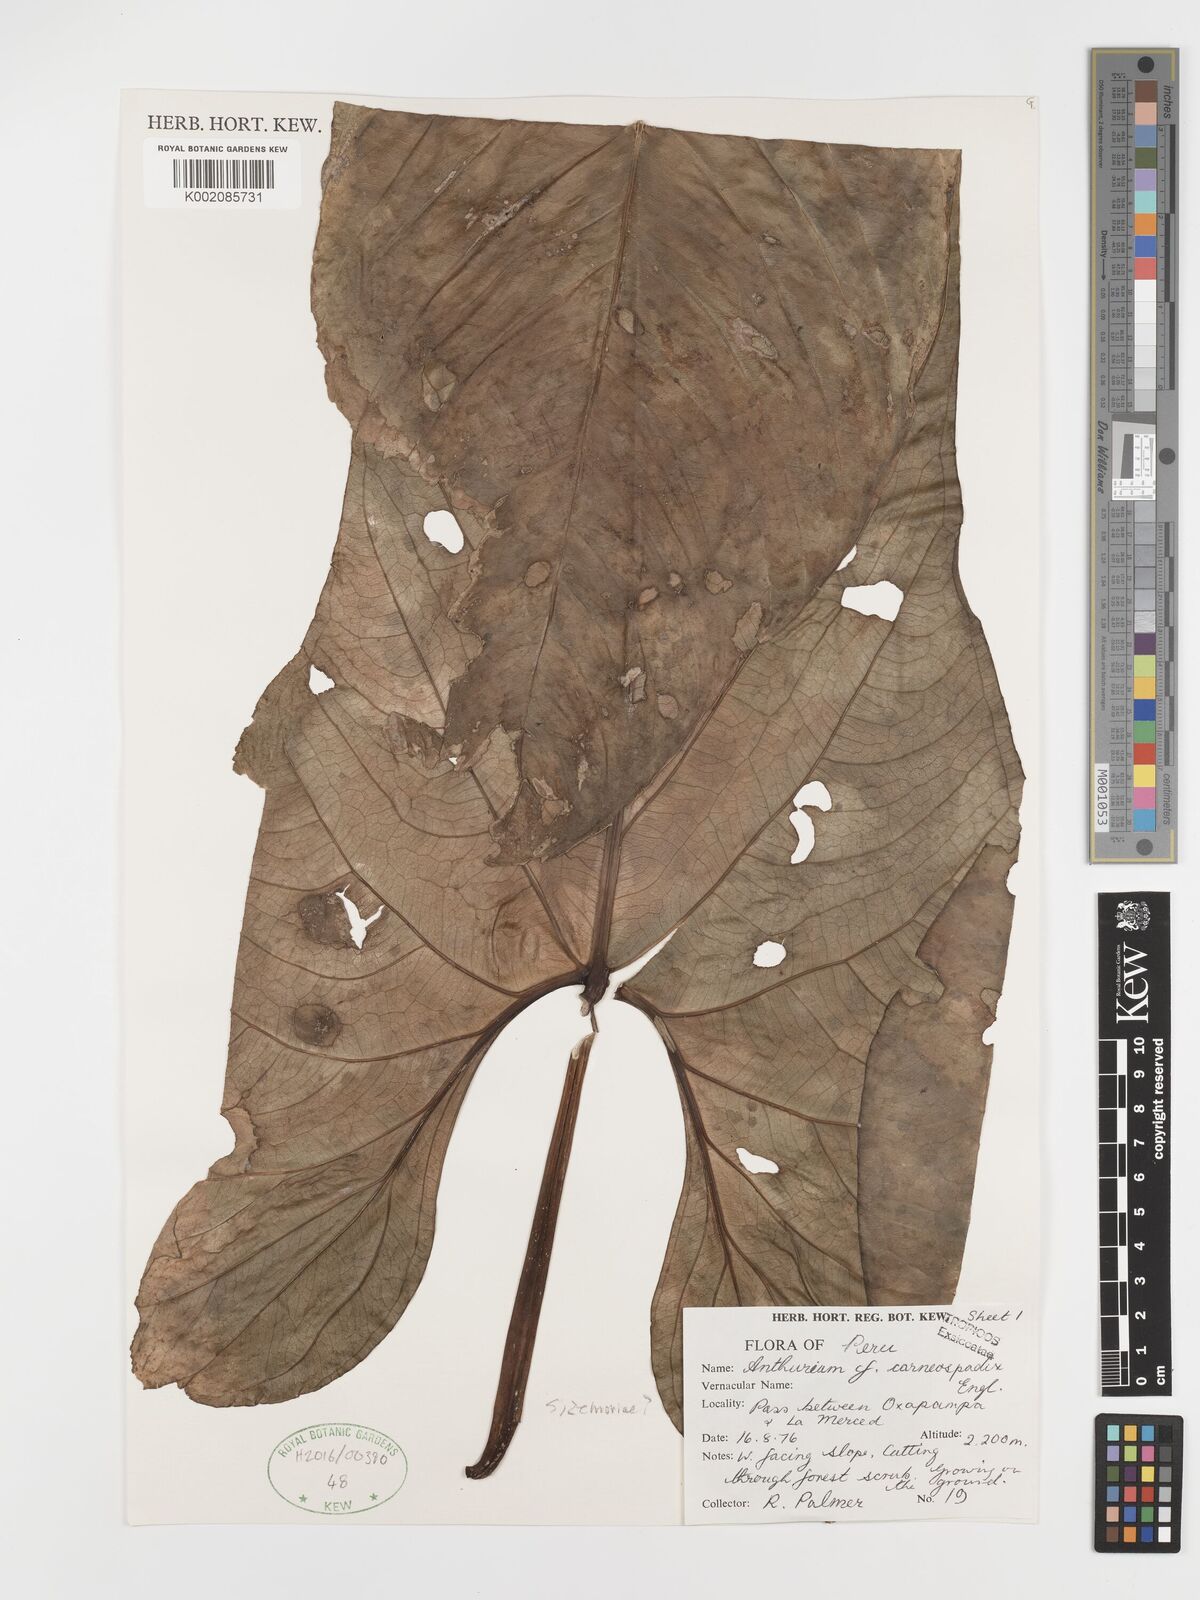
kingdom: Plantae
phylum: Tracheophyta
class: Liliopsida
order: Alismatales
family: Araceae
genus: Anthurium
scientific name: Anthurium carneospadix
